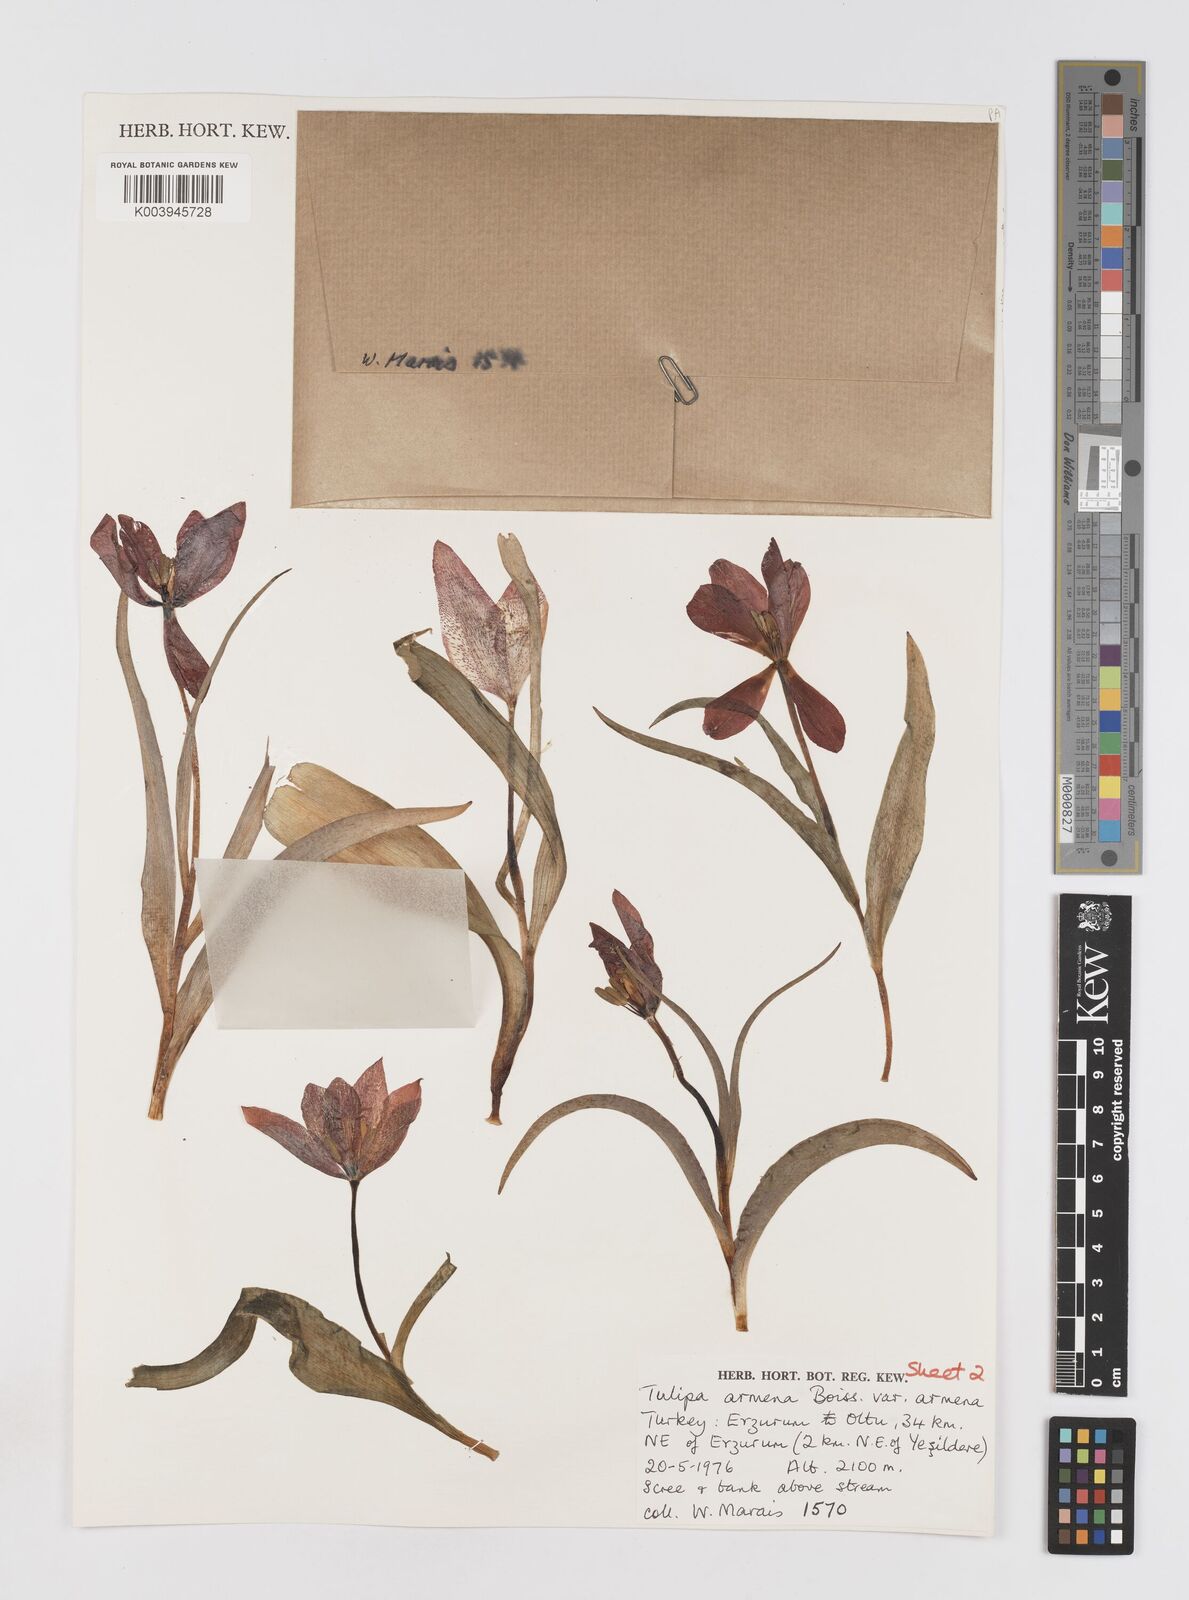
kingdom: Plantae
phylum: Tracheophyta
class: Liliopsida
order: Liliales
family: Liliaceae
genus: Tulipa
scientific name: Tulipa armena
